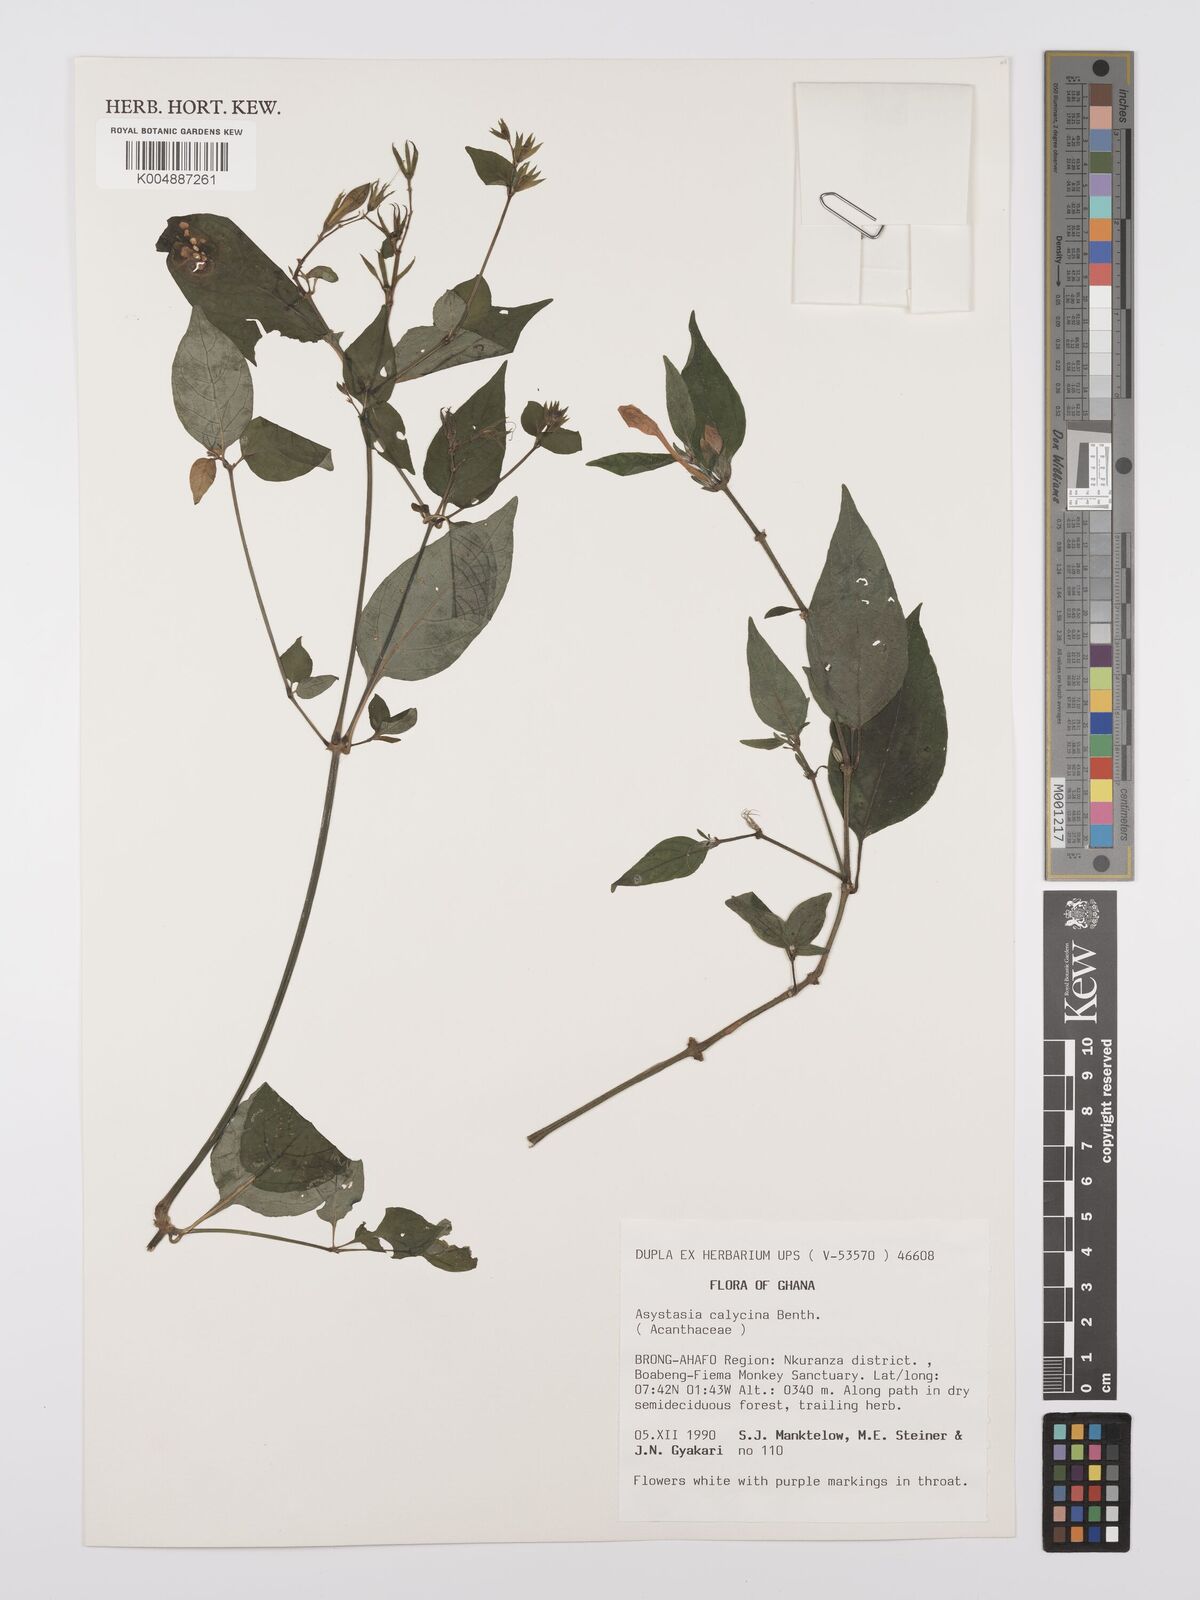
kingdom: Plantae
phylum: Tracheophyta
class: Magnoliopsida
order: Lamiales
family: Acanthaceae
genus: Asystasia
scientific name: Asystasia
